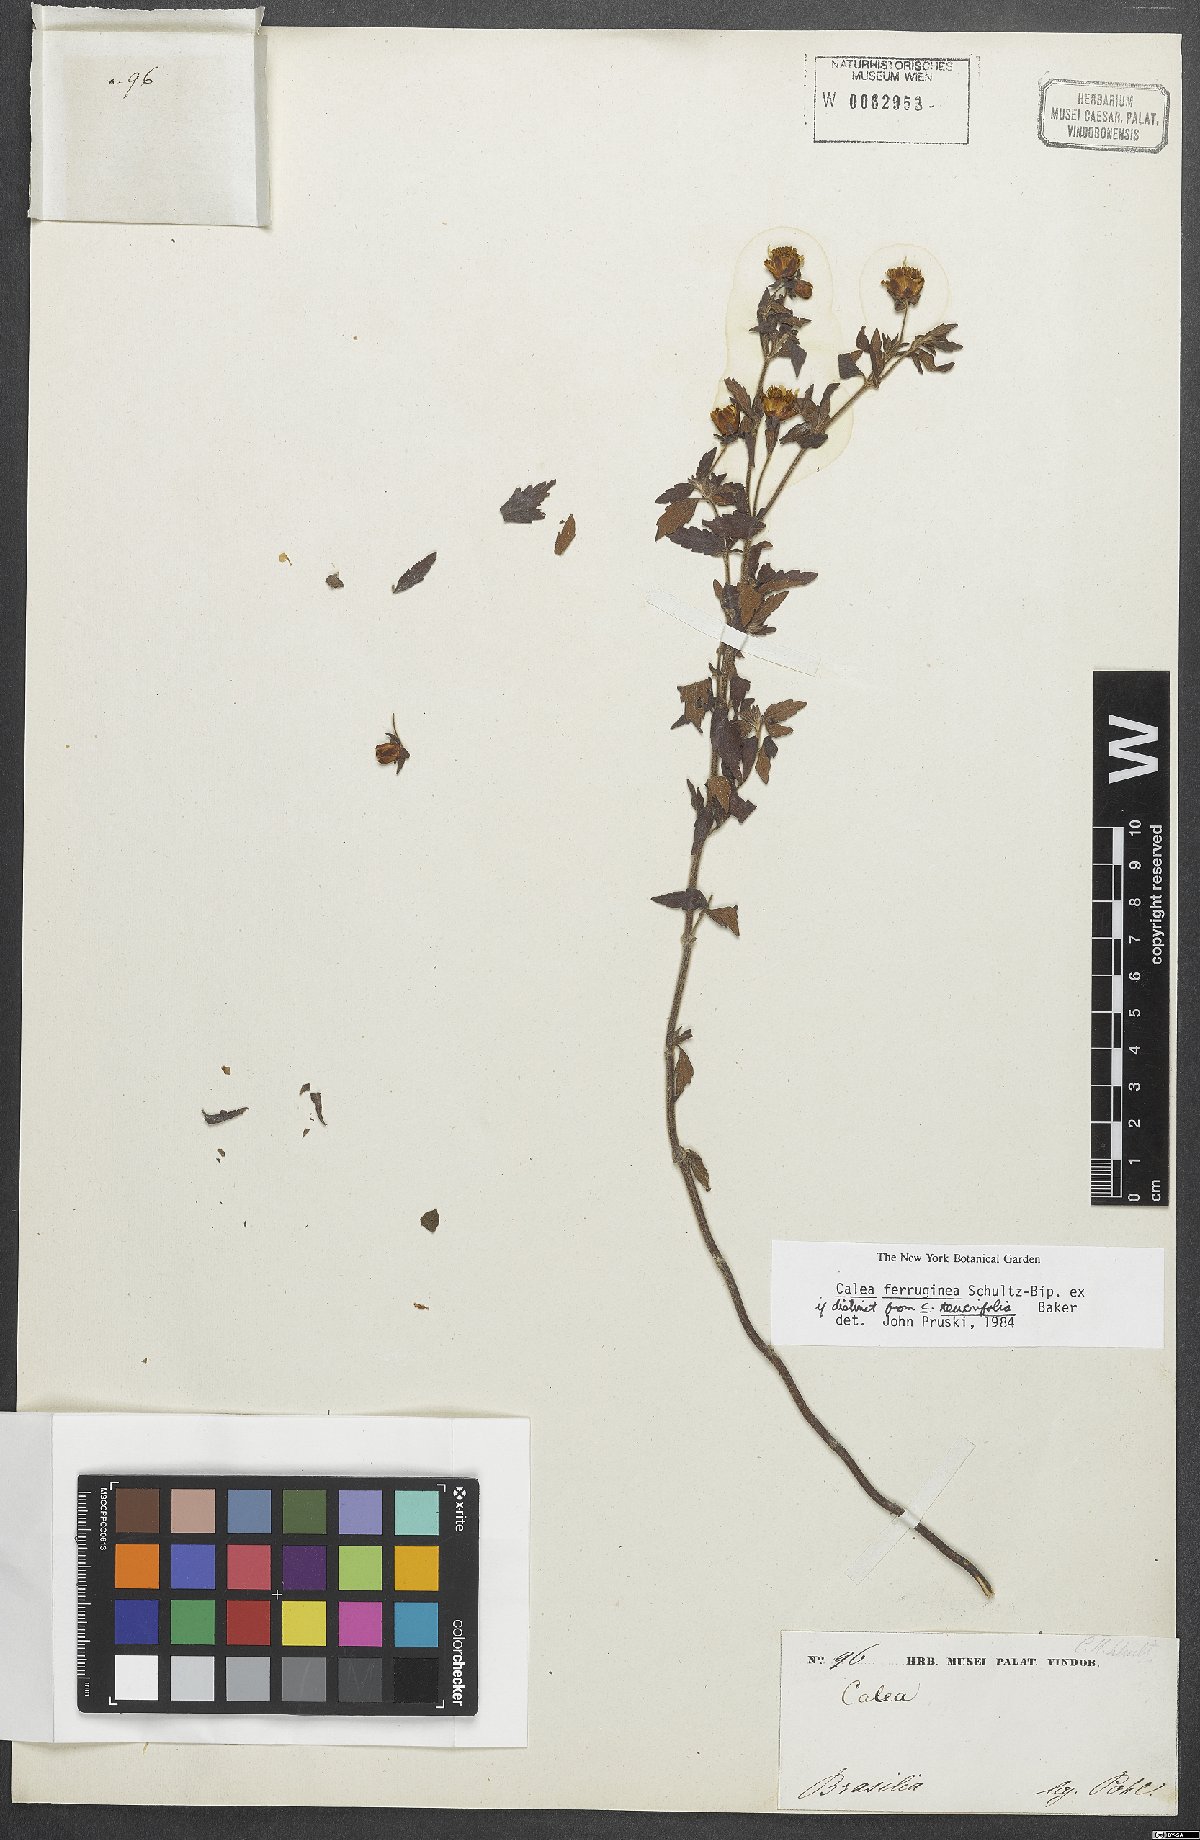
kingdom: Plantae
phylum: Tracheophyta
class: Magnoliopsida
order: Asterales
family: Asteraceae
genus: Calea
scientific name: Calea ferruginea
